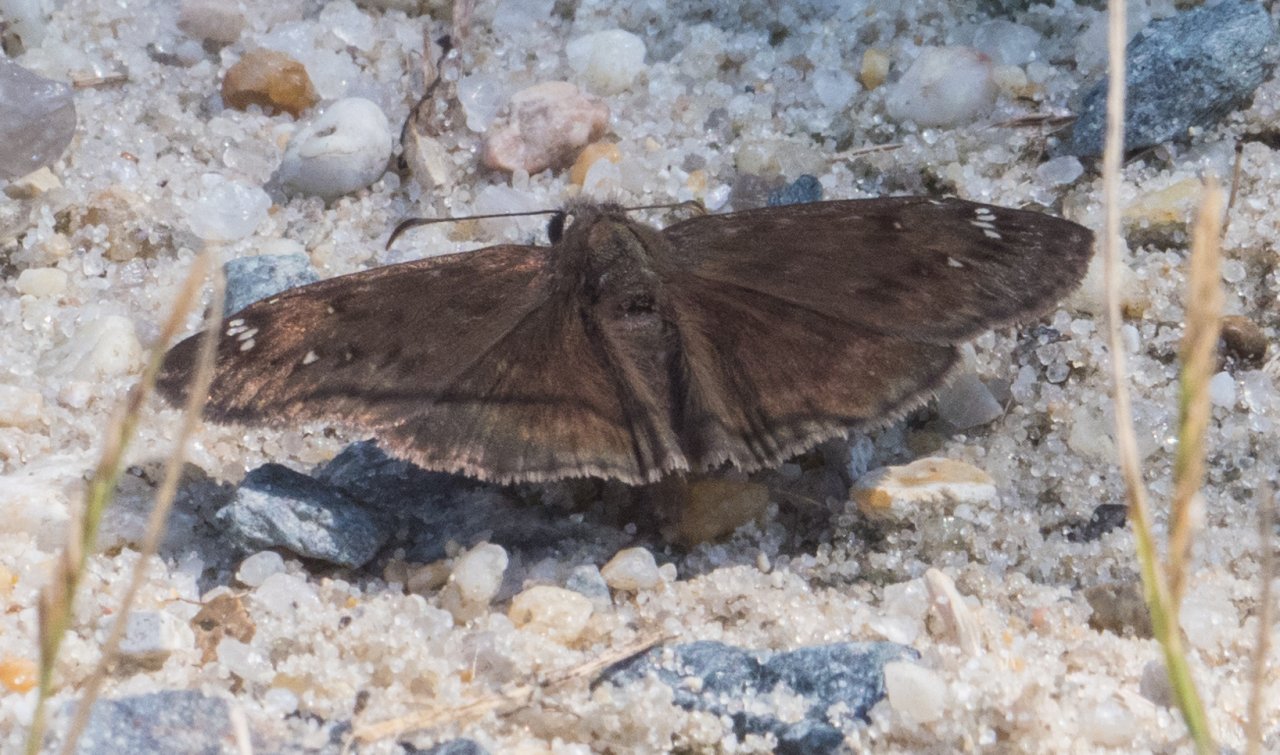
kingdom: Animalia
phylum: Arthropoda
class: Insecta
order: Lepidoptera
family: Hesperiidae
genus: Gesta
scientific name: Gesta
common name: Horace's Duskywing
